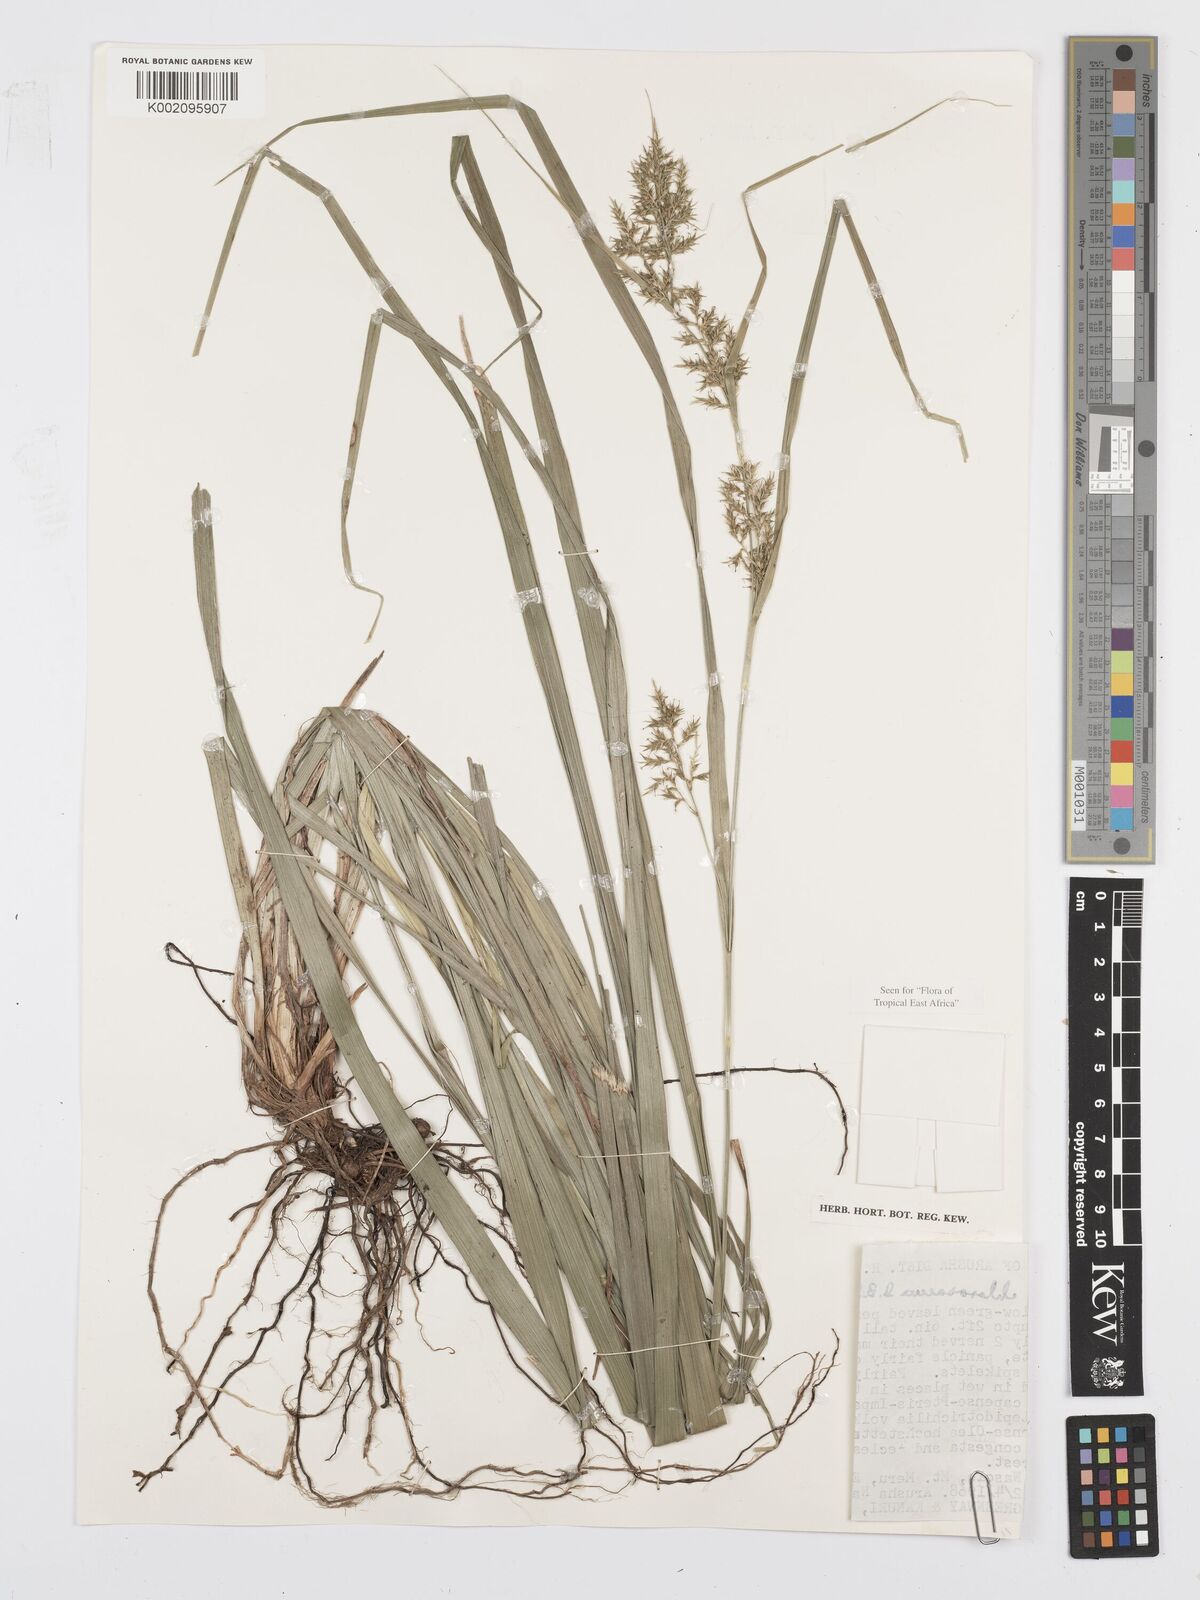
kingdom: Plantae
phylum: Tracheophyta
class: Liliopsida
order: Poales
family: Cyperaceae
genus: Carex
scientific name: Carex chlorosaccus
